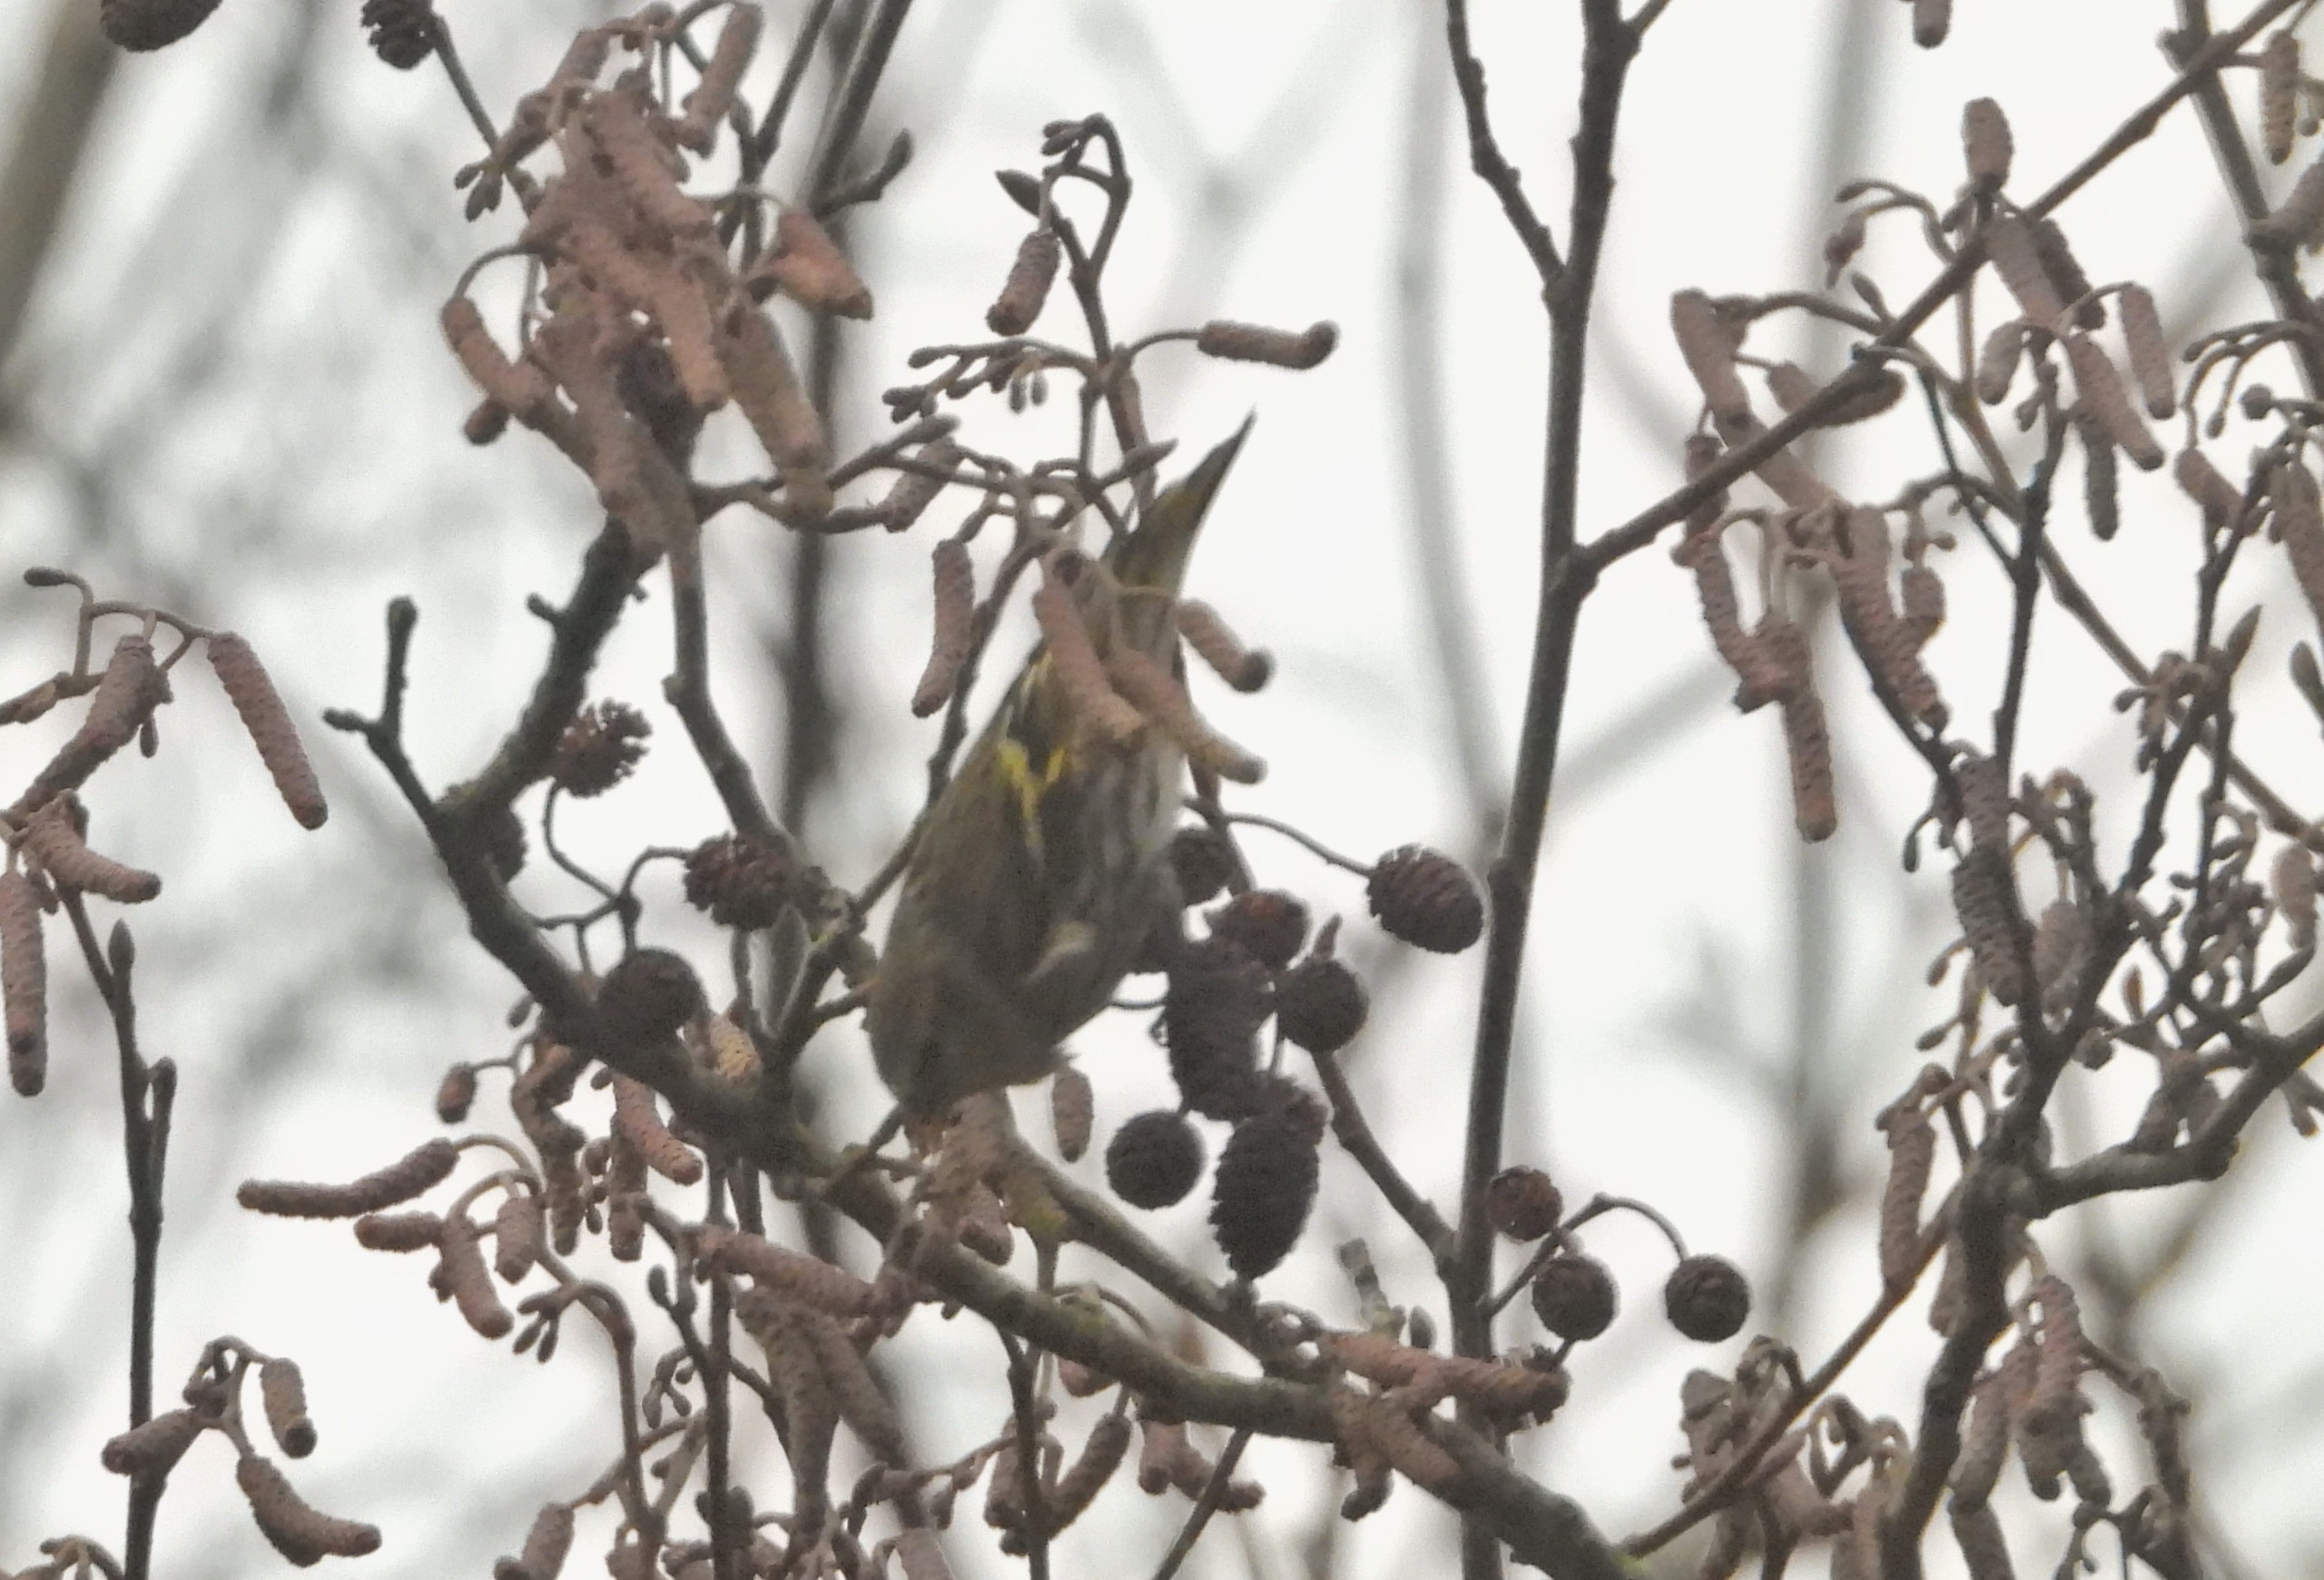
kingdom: Animalia
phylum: Chordata
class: Aves
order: Passeriformes
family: Fringillidae
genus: Spinus
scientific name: Spinus spinus
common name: Grønsisken
